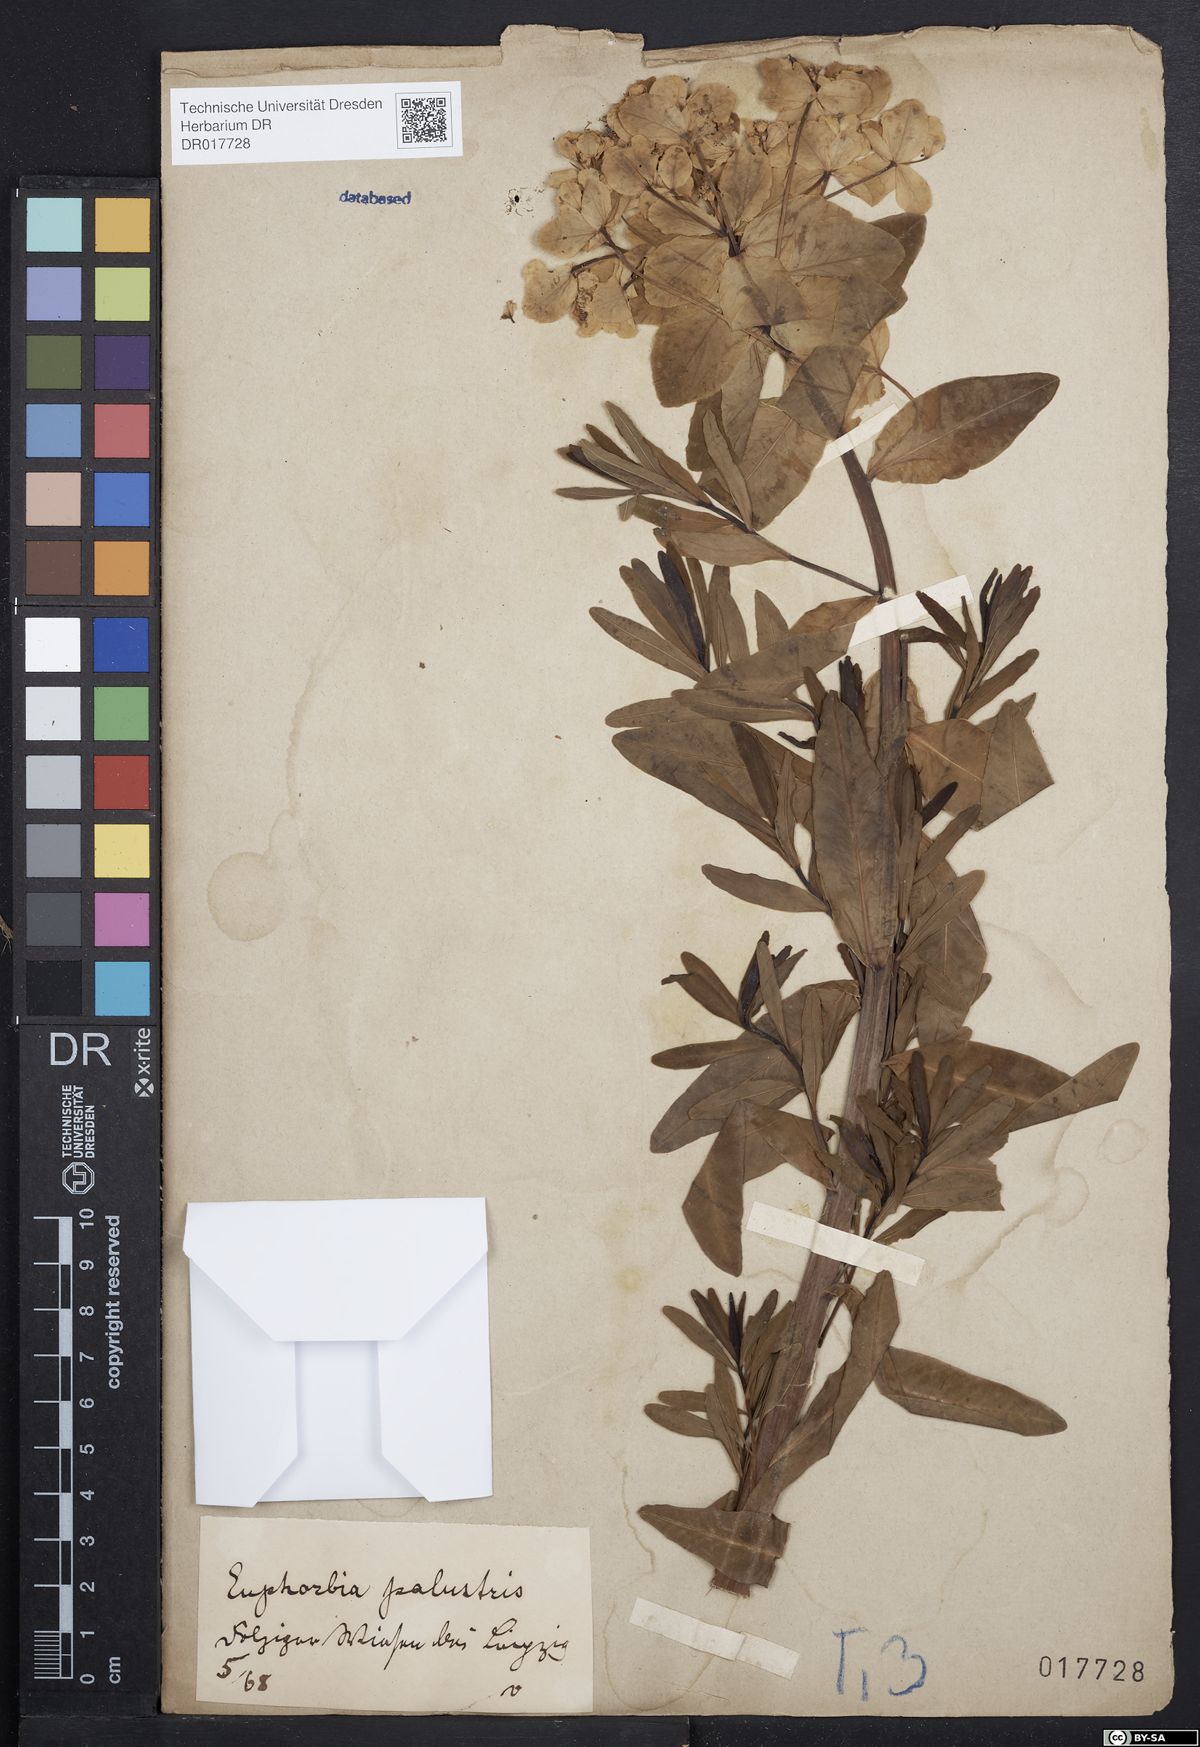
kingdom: Plantae
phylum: Tracheophyta
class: Magnoliopsida
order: Malpighiales
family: Euphorbiaceae
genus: Euphorbia
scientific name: Euphorbia palustris
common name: Marsh spurge
